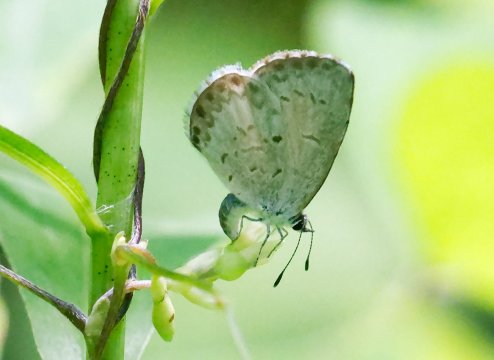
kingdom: Animalia
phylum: Arthropoda
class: Insecta
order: Lepidoptera
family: Lycaenidae
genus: Celastrina
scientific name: Celastrina lucia
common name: Northern Spring Azure
